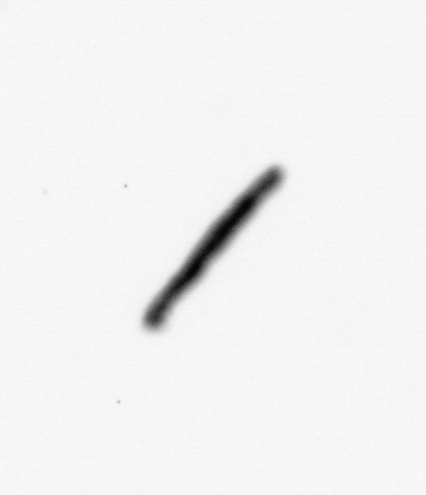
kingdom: Chromista
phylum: Ochrophyta
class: Bacillariophyceae
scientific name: Bacillariophyceae
